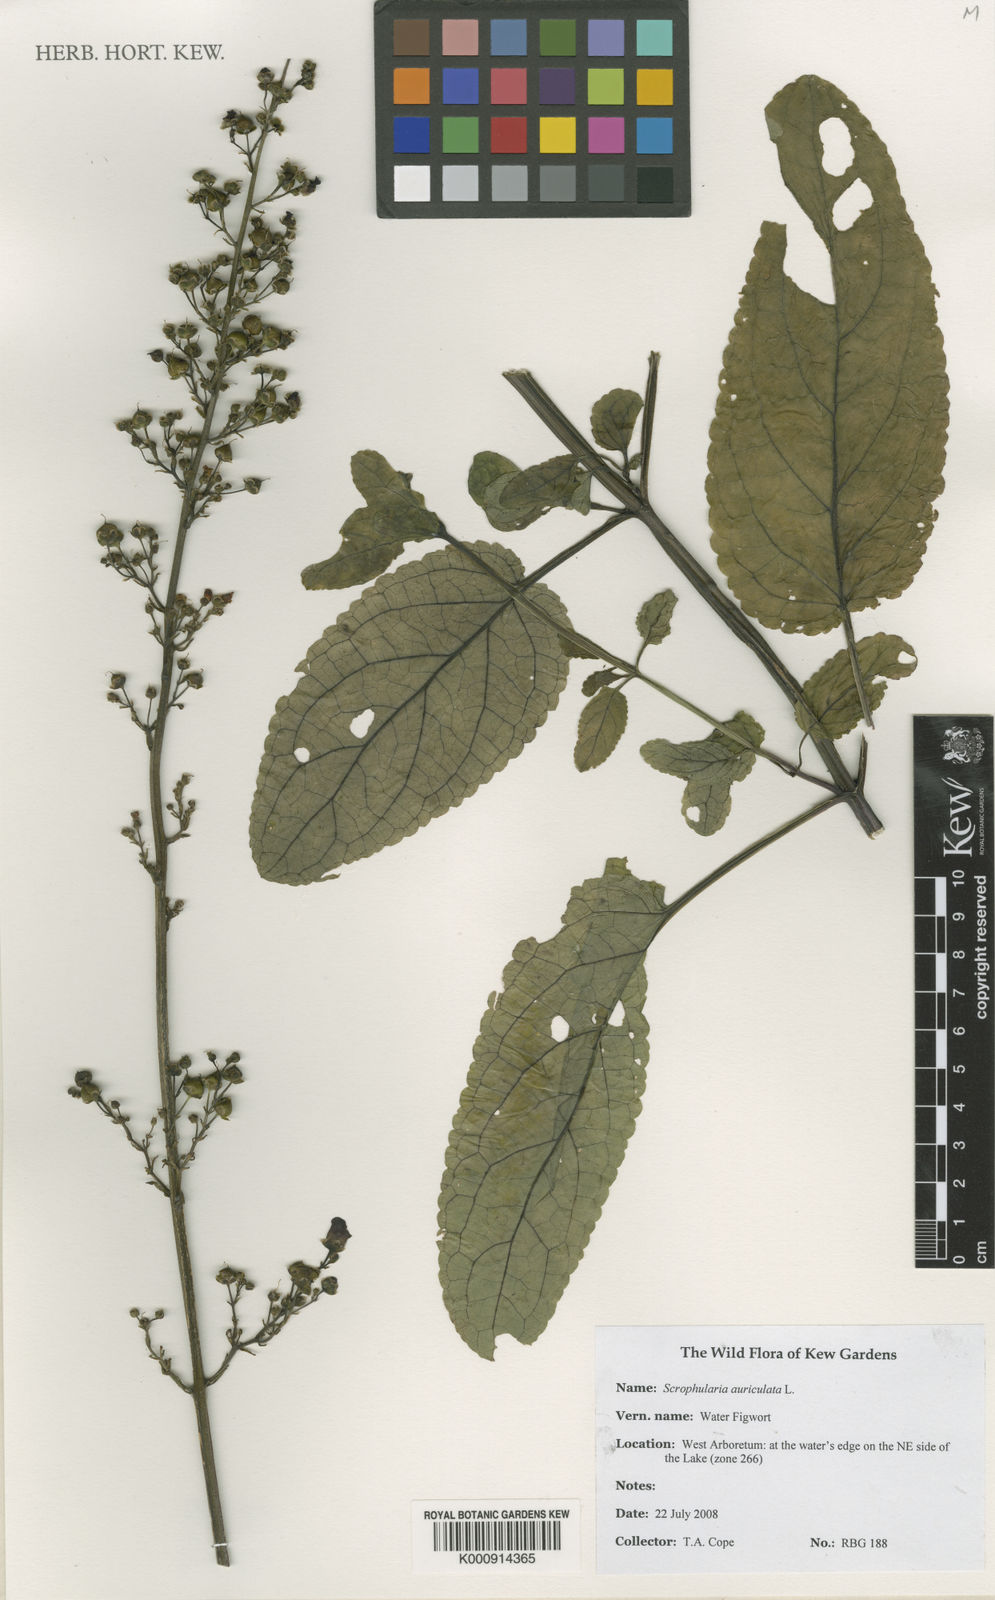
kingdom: Plantae
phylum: Tracheophyta
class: Magnoliopsida
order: Lamiales
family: Scrophulariaceae
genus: Scrophularia
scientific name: Scrophularia auriculata
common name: Water betony
